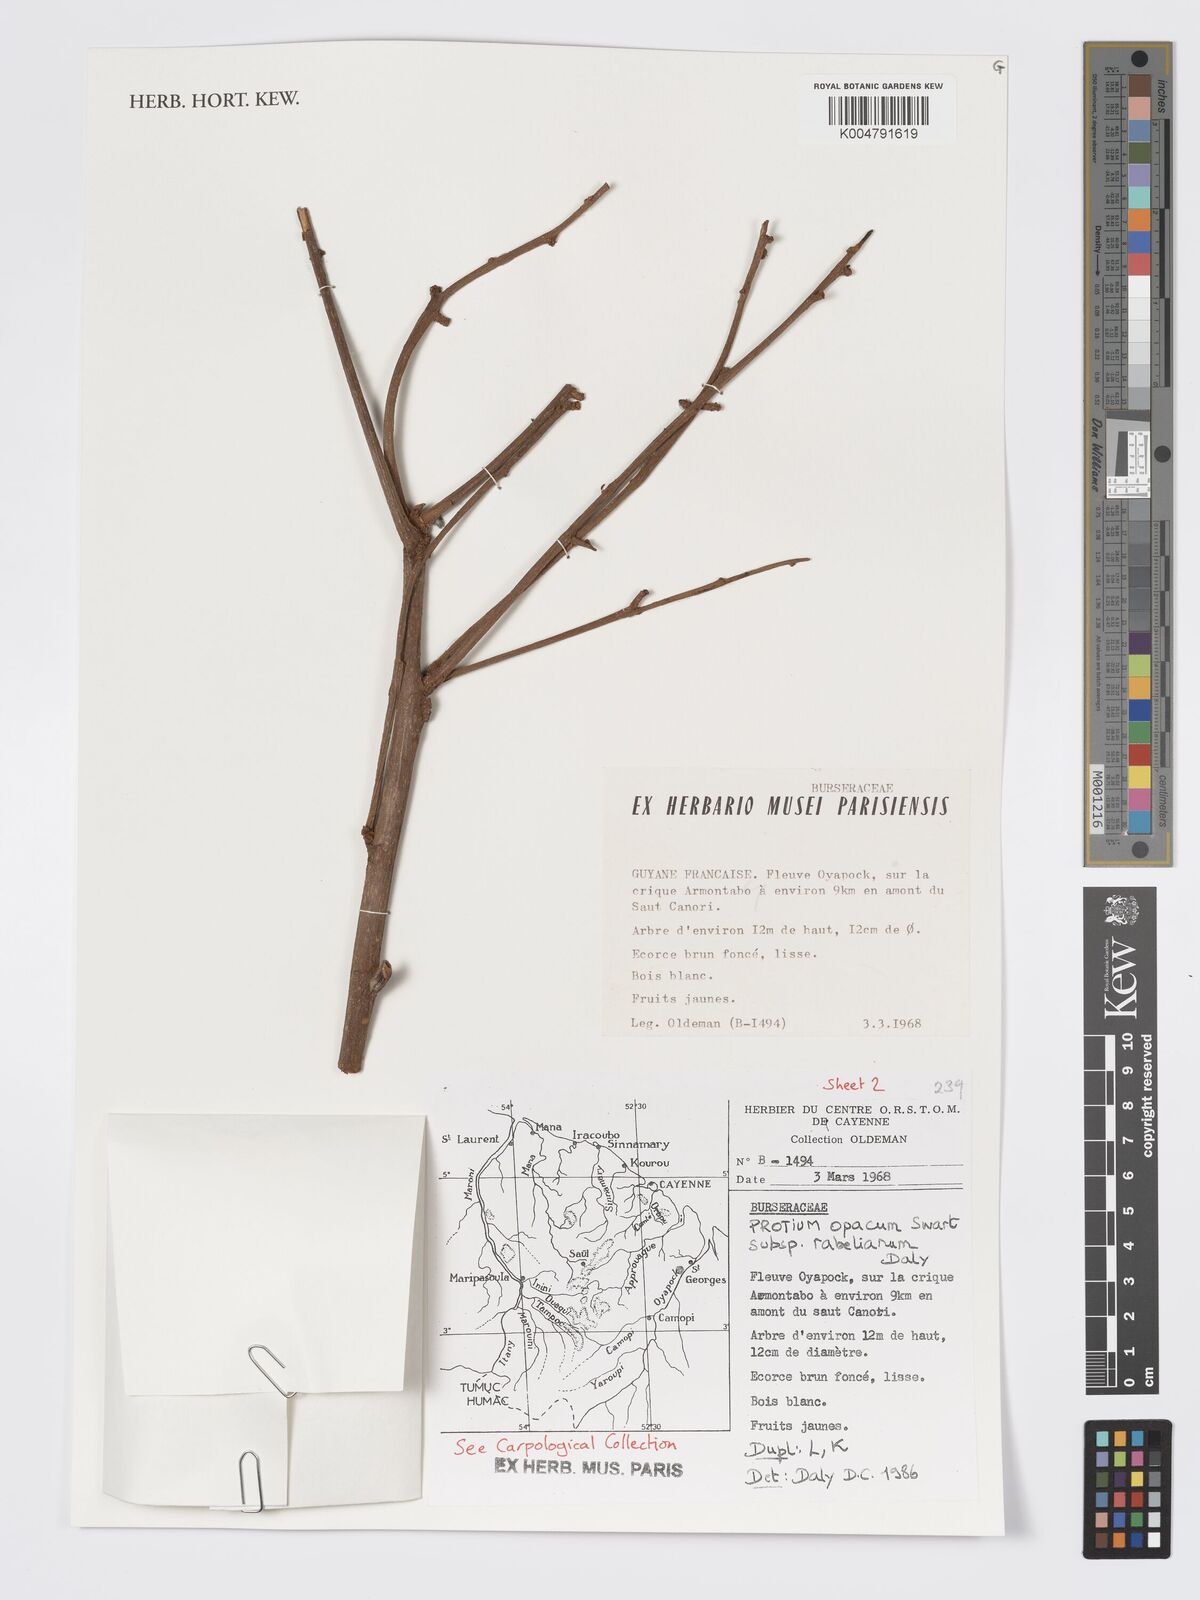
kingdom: Plantae
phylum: Tracheophyta
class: Magnoliopsida
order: Sapindales
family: Burseraceae
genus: Protium
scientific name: Protium opacum
